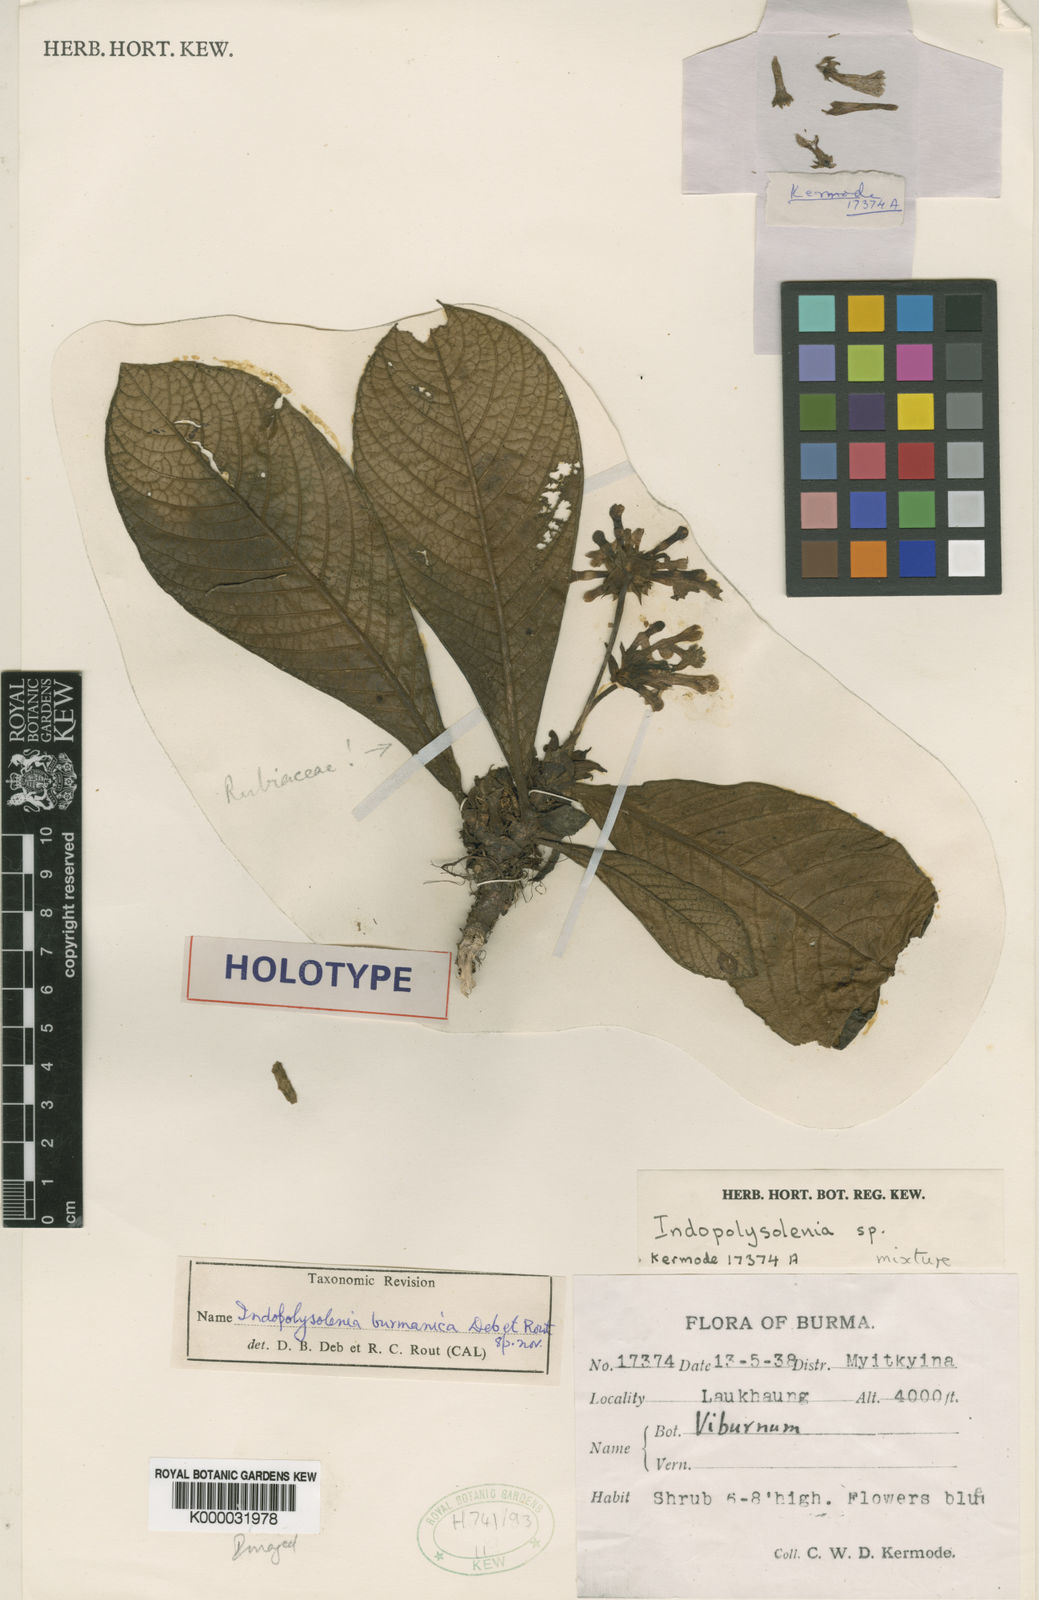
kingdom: Plantae
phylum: Tracheophyta
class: Magnoliopsida
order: Gentianales
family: Rubiaceae
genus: Leptomischus
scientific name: Leptomischus primuloides
